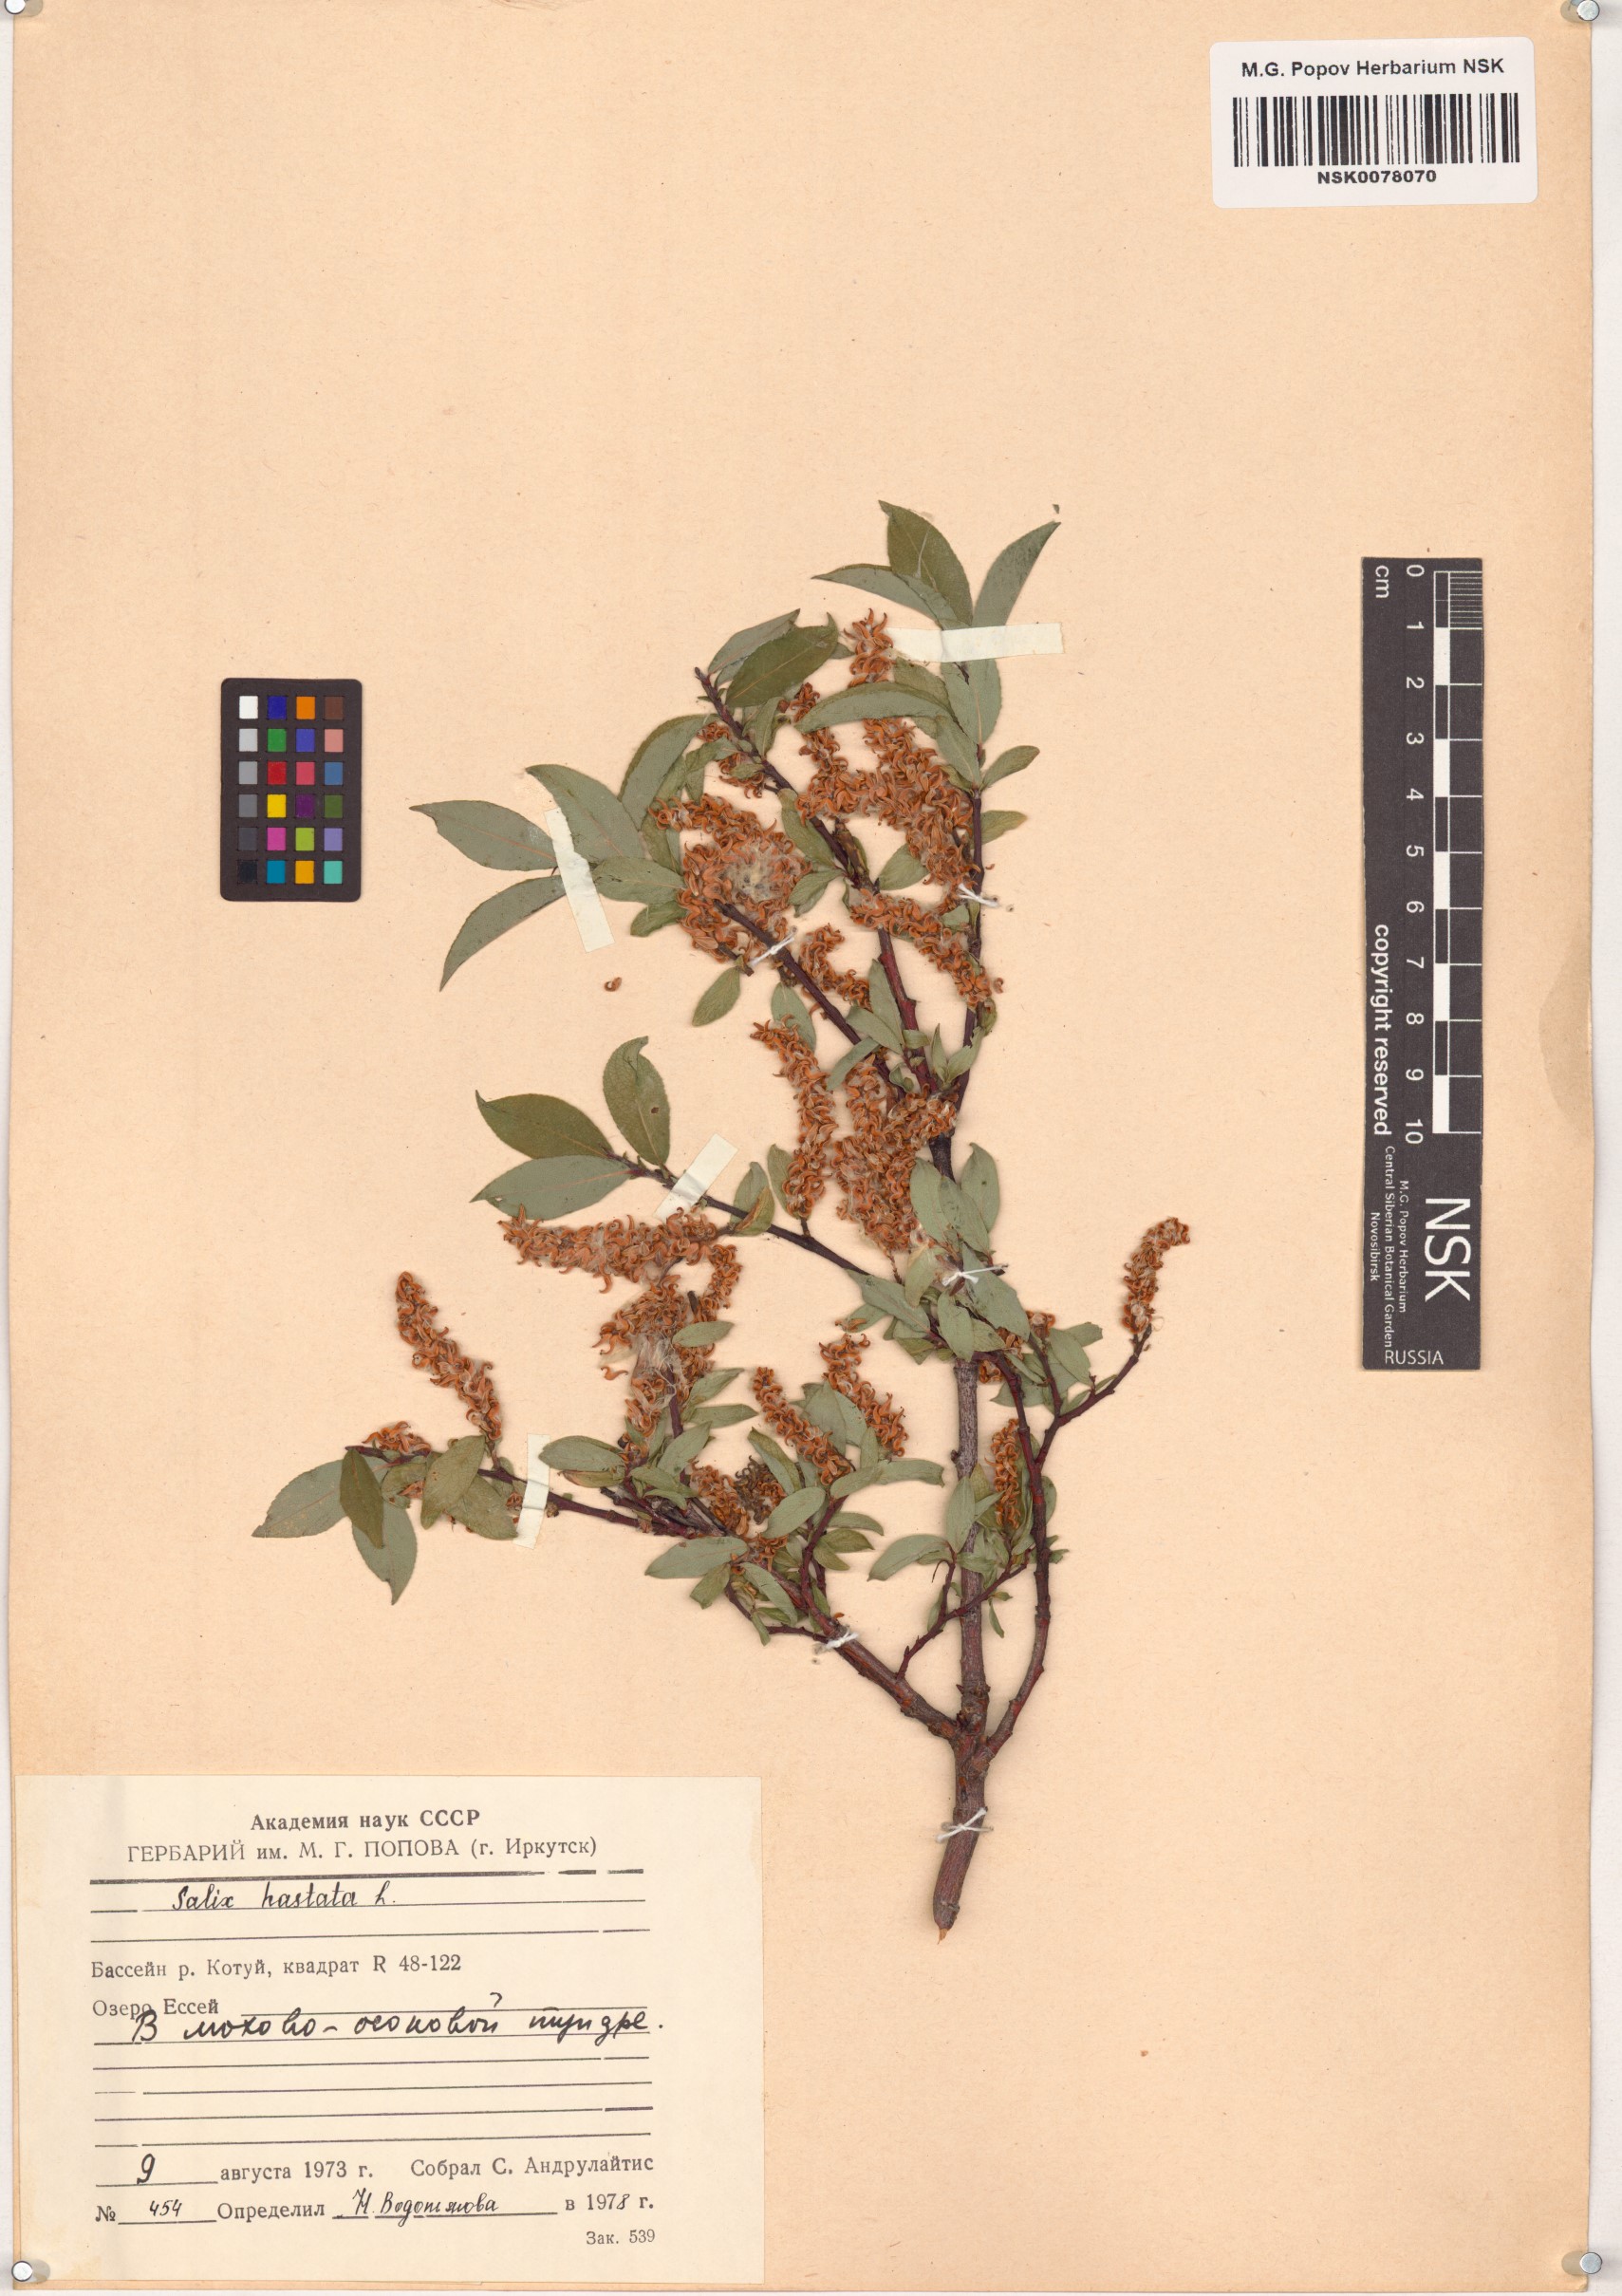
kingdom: Plantae
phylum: Tracheophyta
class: Magnoliopsida
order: Malpighiales
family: Salicaceae
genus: Salix
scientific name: Salix hastata
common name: Halberd willow
